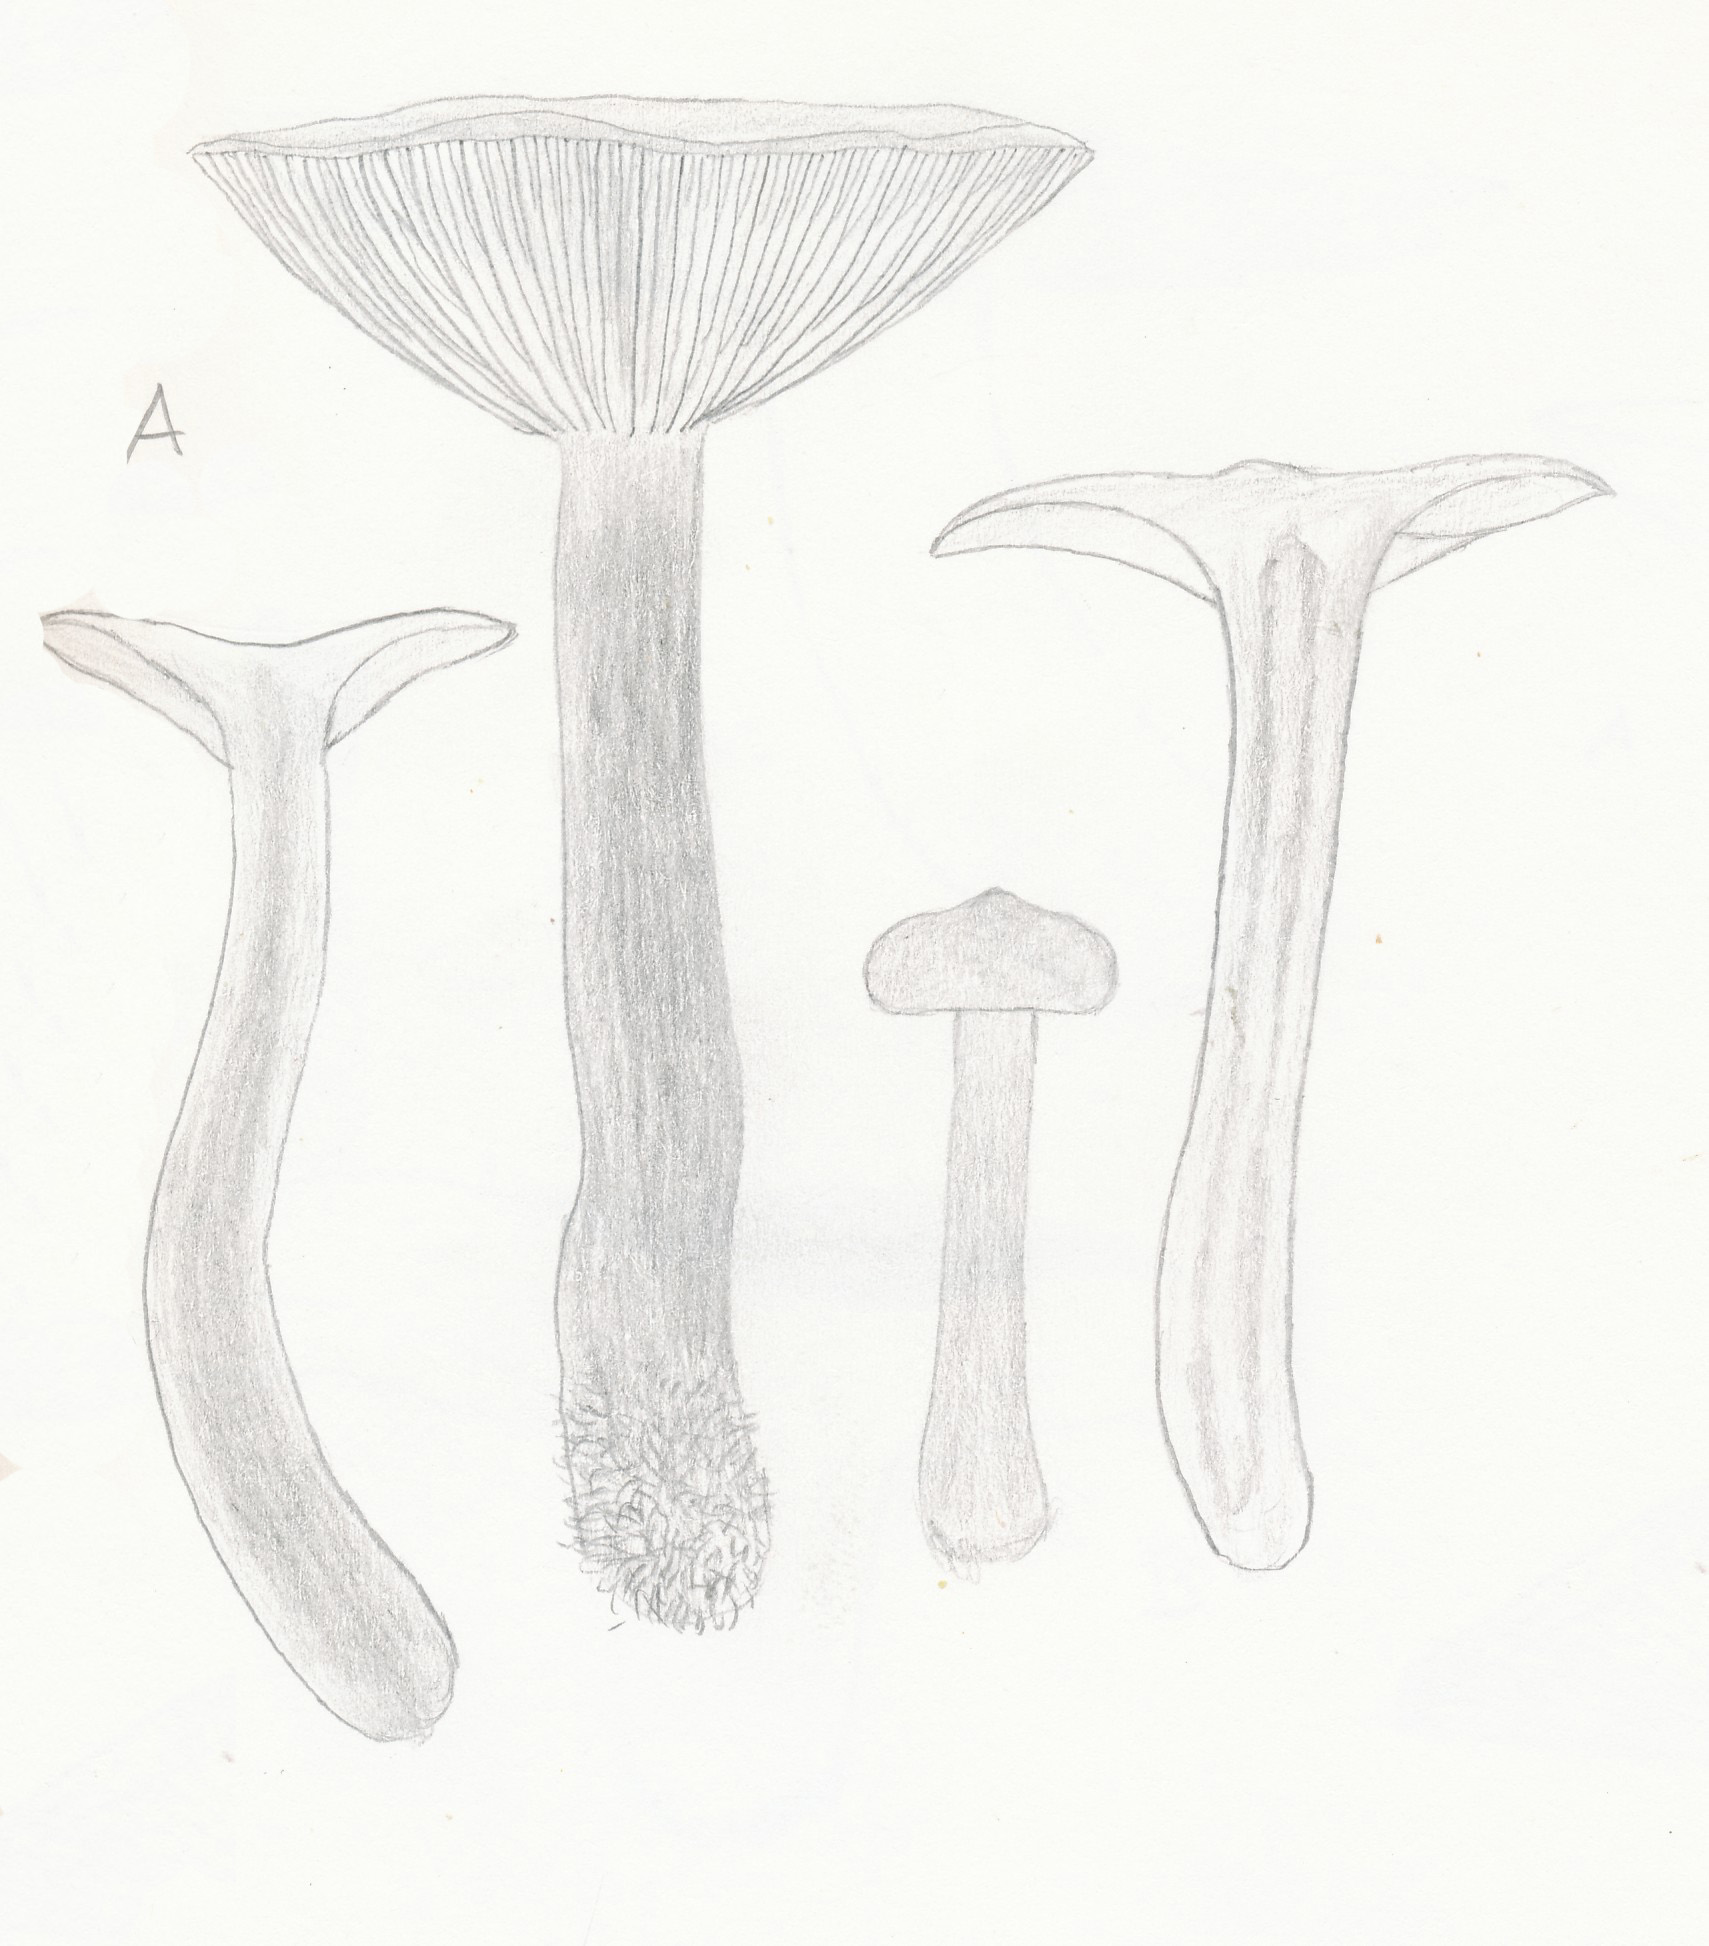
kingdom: Fungi
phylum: Basidiomycota
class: Agaricomycetes
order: Russulales
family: Russulaceae
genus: Lactarius
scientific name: Lactarius tabidus
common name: rynket mælkehat
